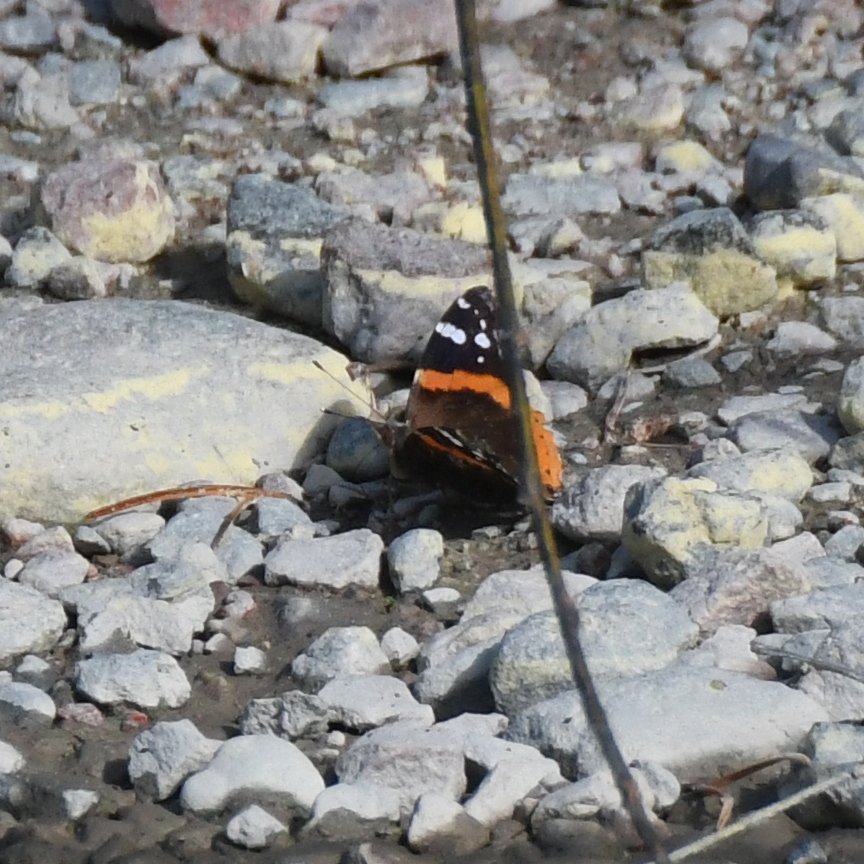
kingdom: Animalia
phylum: Arthropoda
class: Insecta
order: Lepidoptera
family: Nymphalidae
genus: Vanessa
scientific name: Vanessa atalanta
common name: Red Admiral
